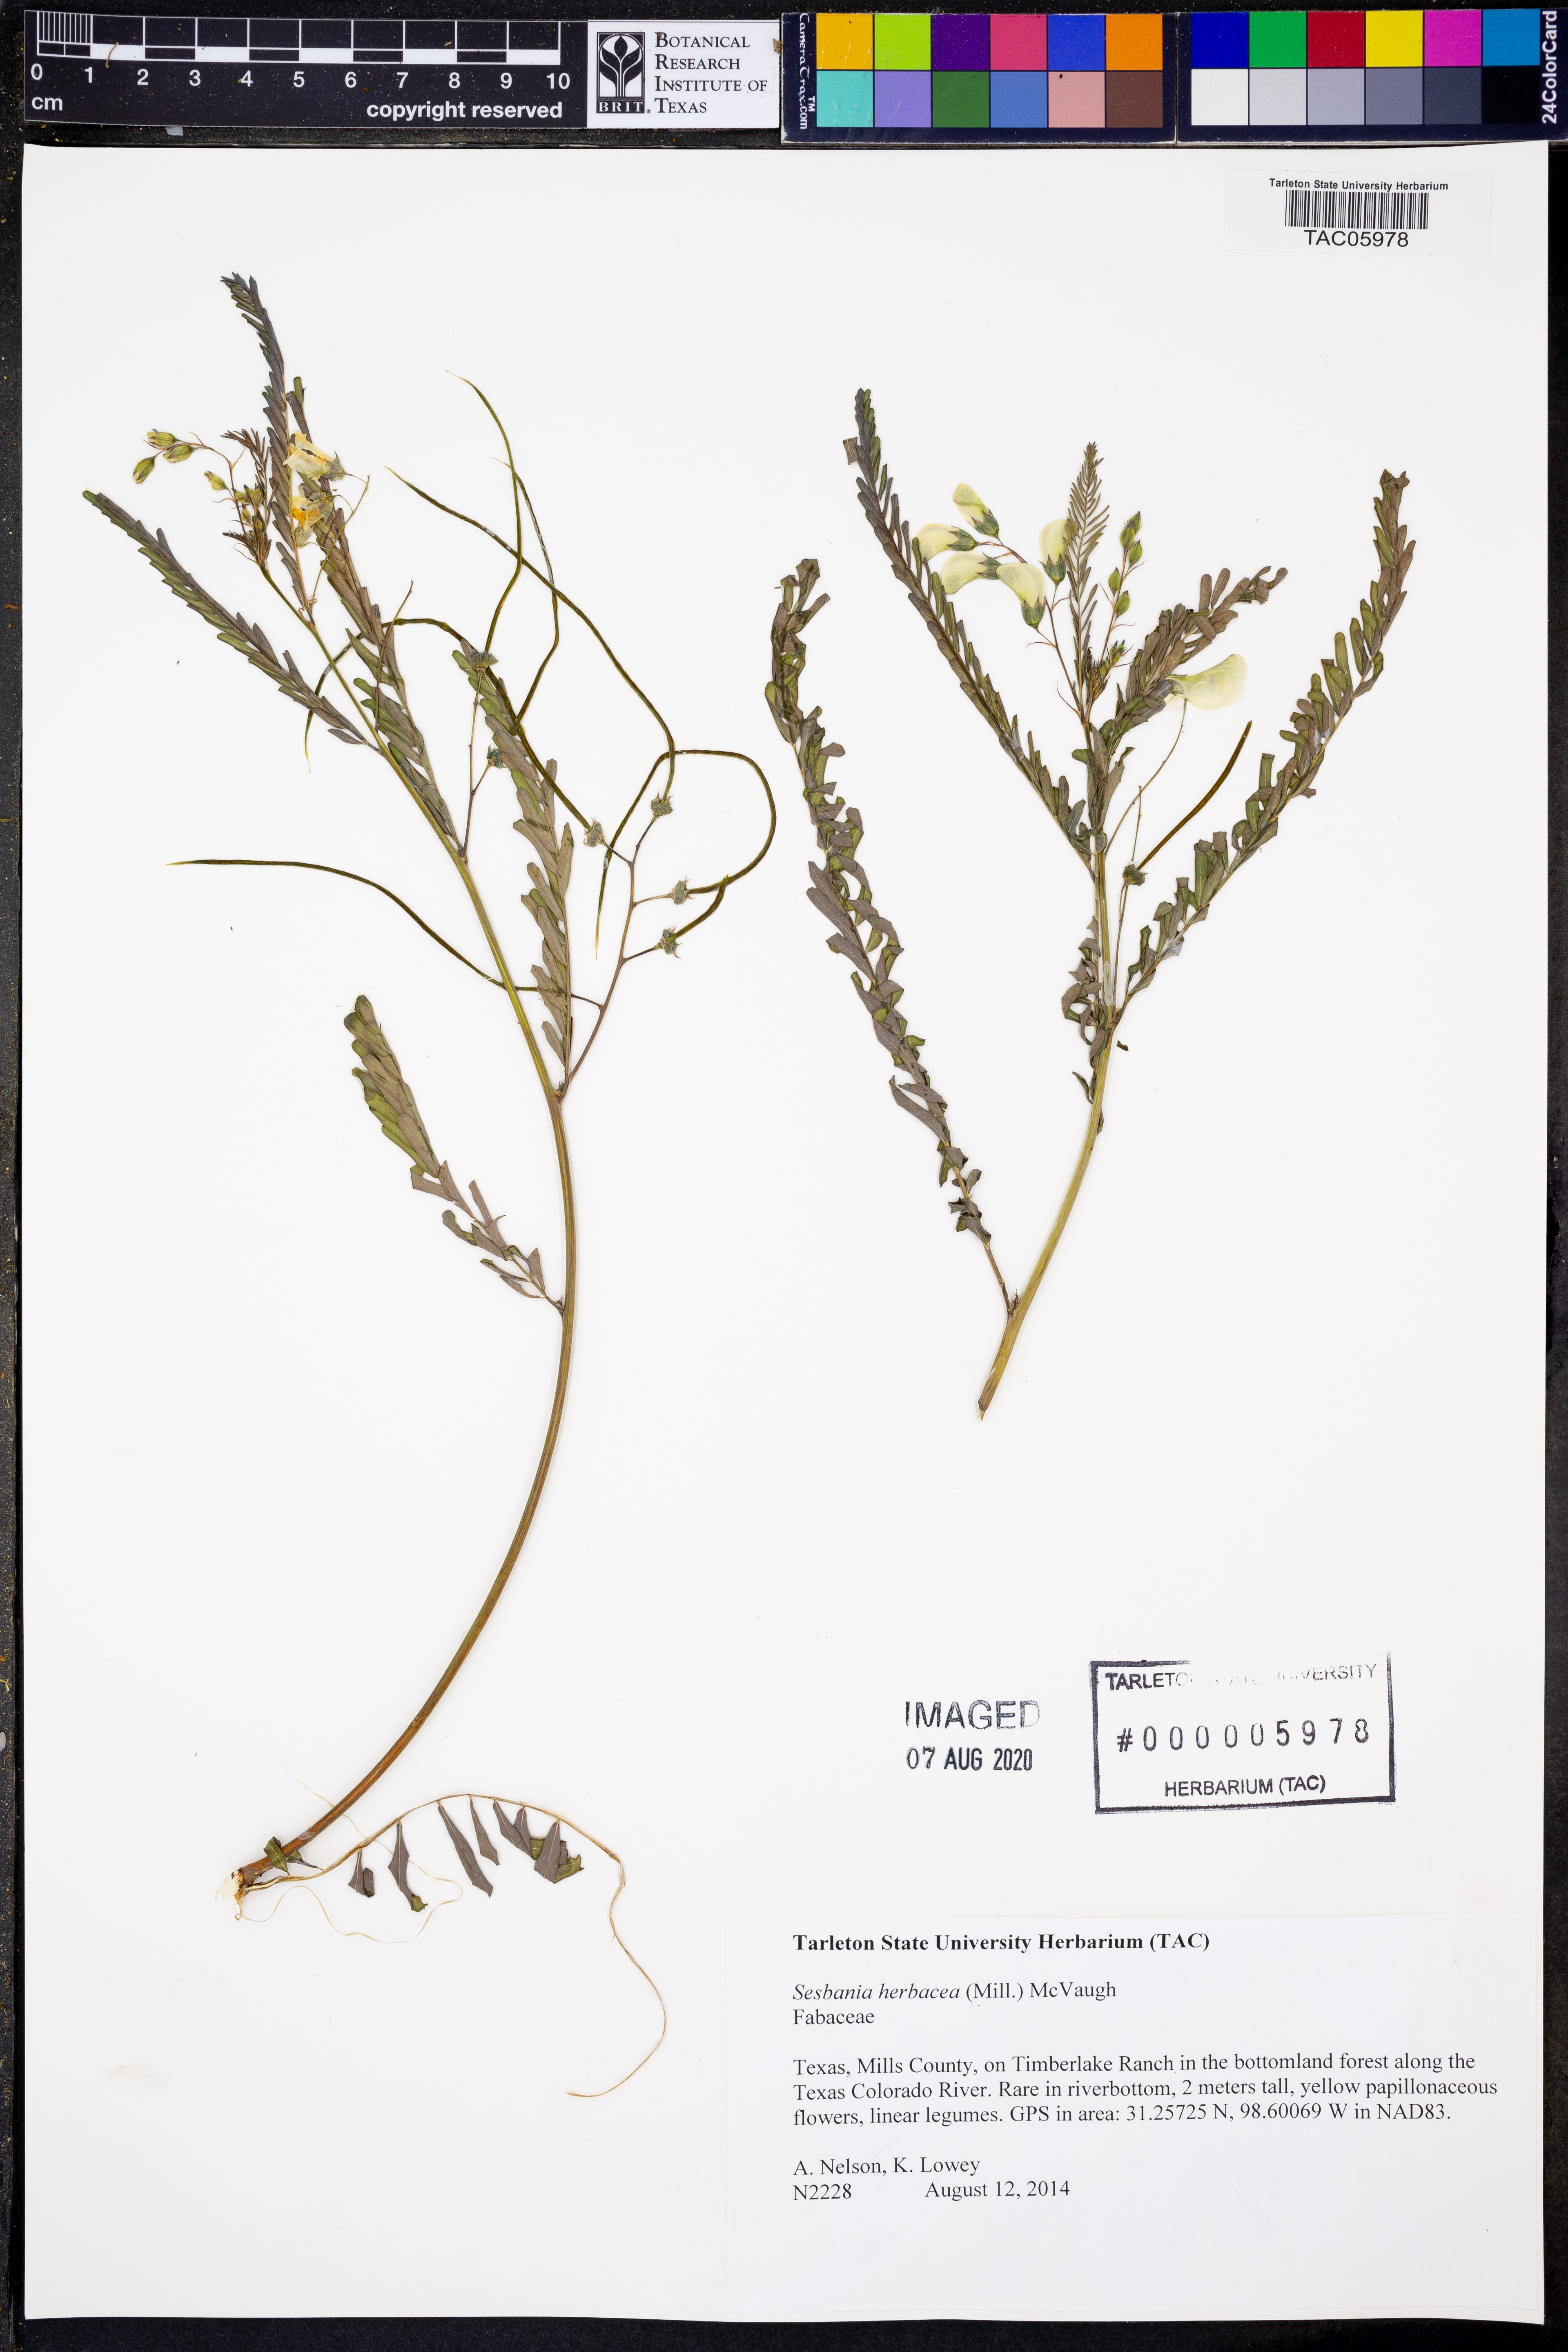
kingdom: Plantae
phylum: Tracheophyta
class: Magnoliopsida
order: Fabales
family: Fabaceae
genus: Sesbania
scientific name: Sesbania herbacea
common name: Bigpod sesbania
